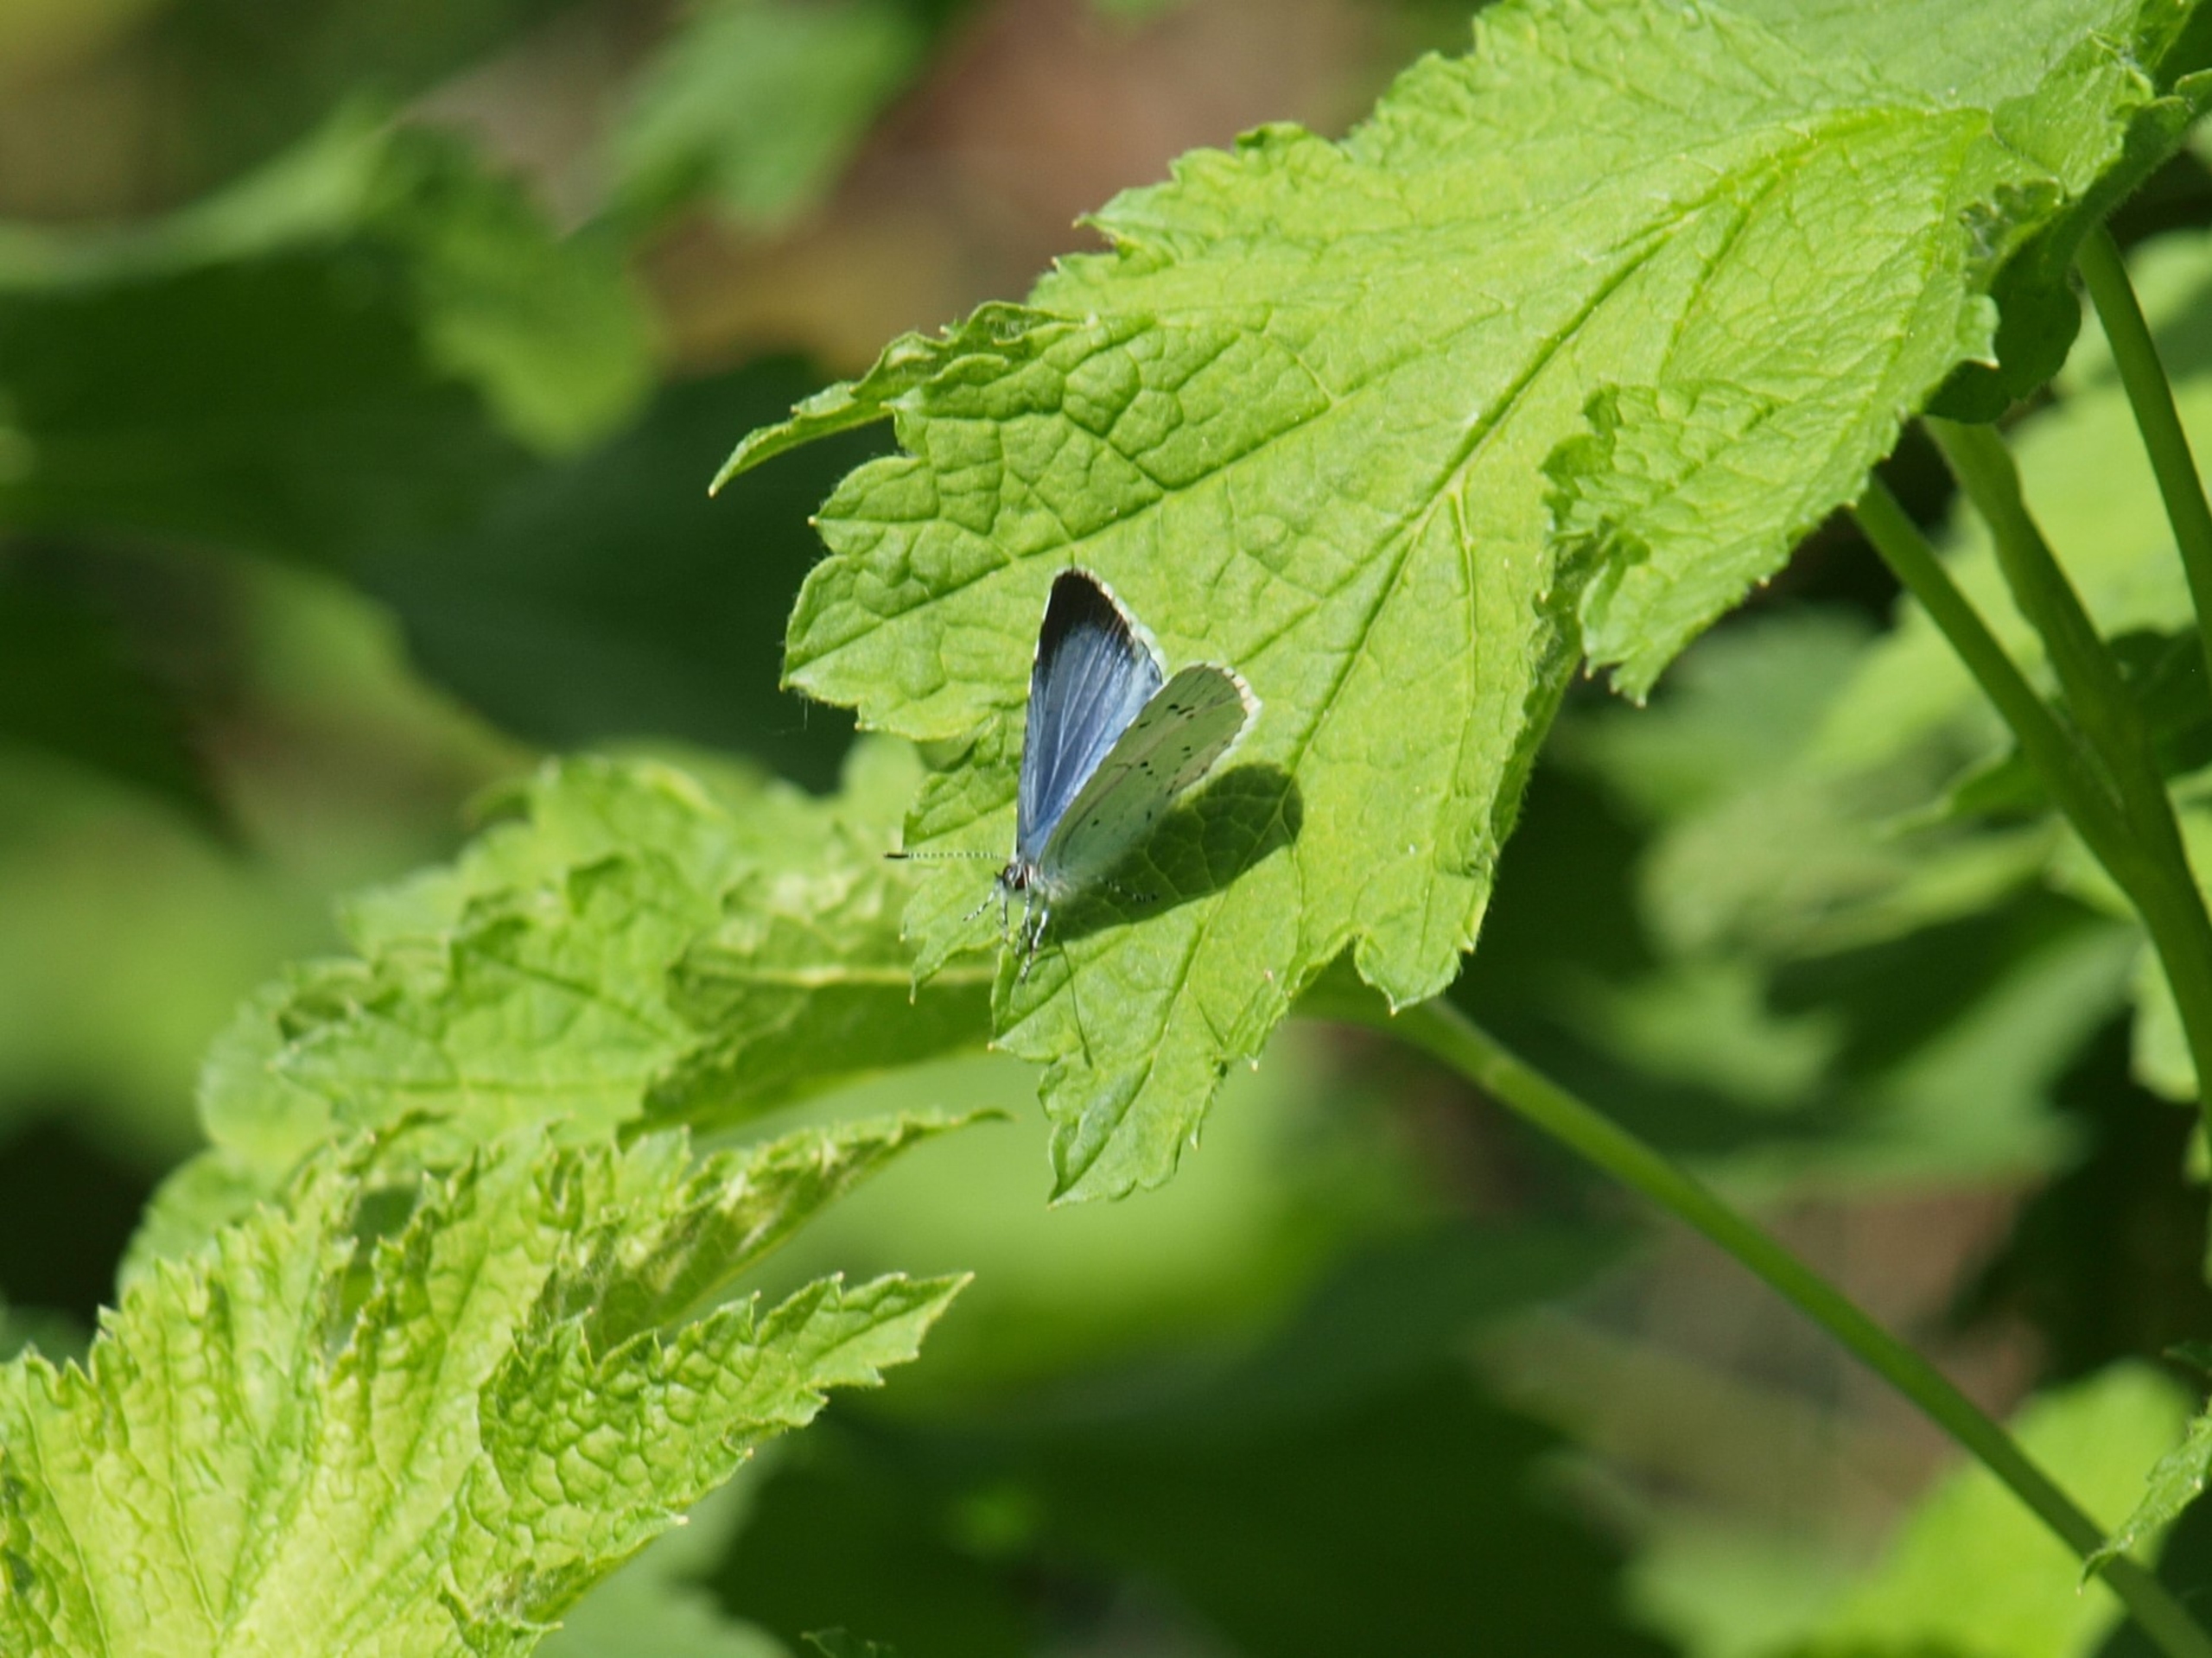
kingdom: Animalia
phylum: Arthropoda
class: Insecta
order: Lepidoptera
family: Lycaenidae
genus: Celastrina
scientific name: Celastrina argiolus
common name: Skovblåfugl
